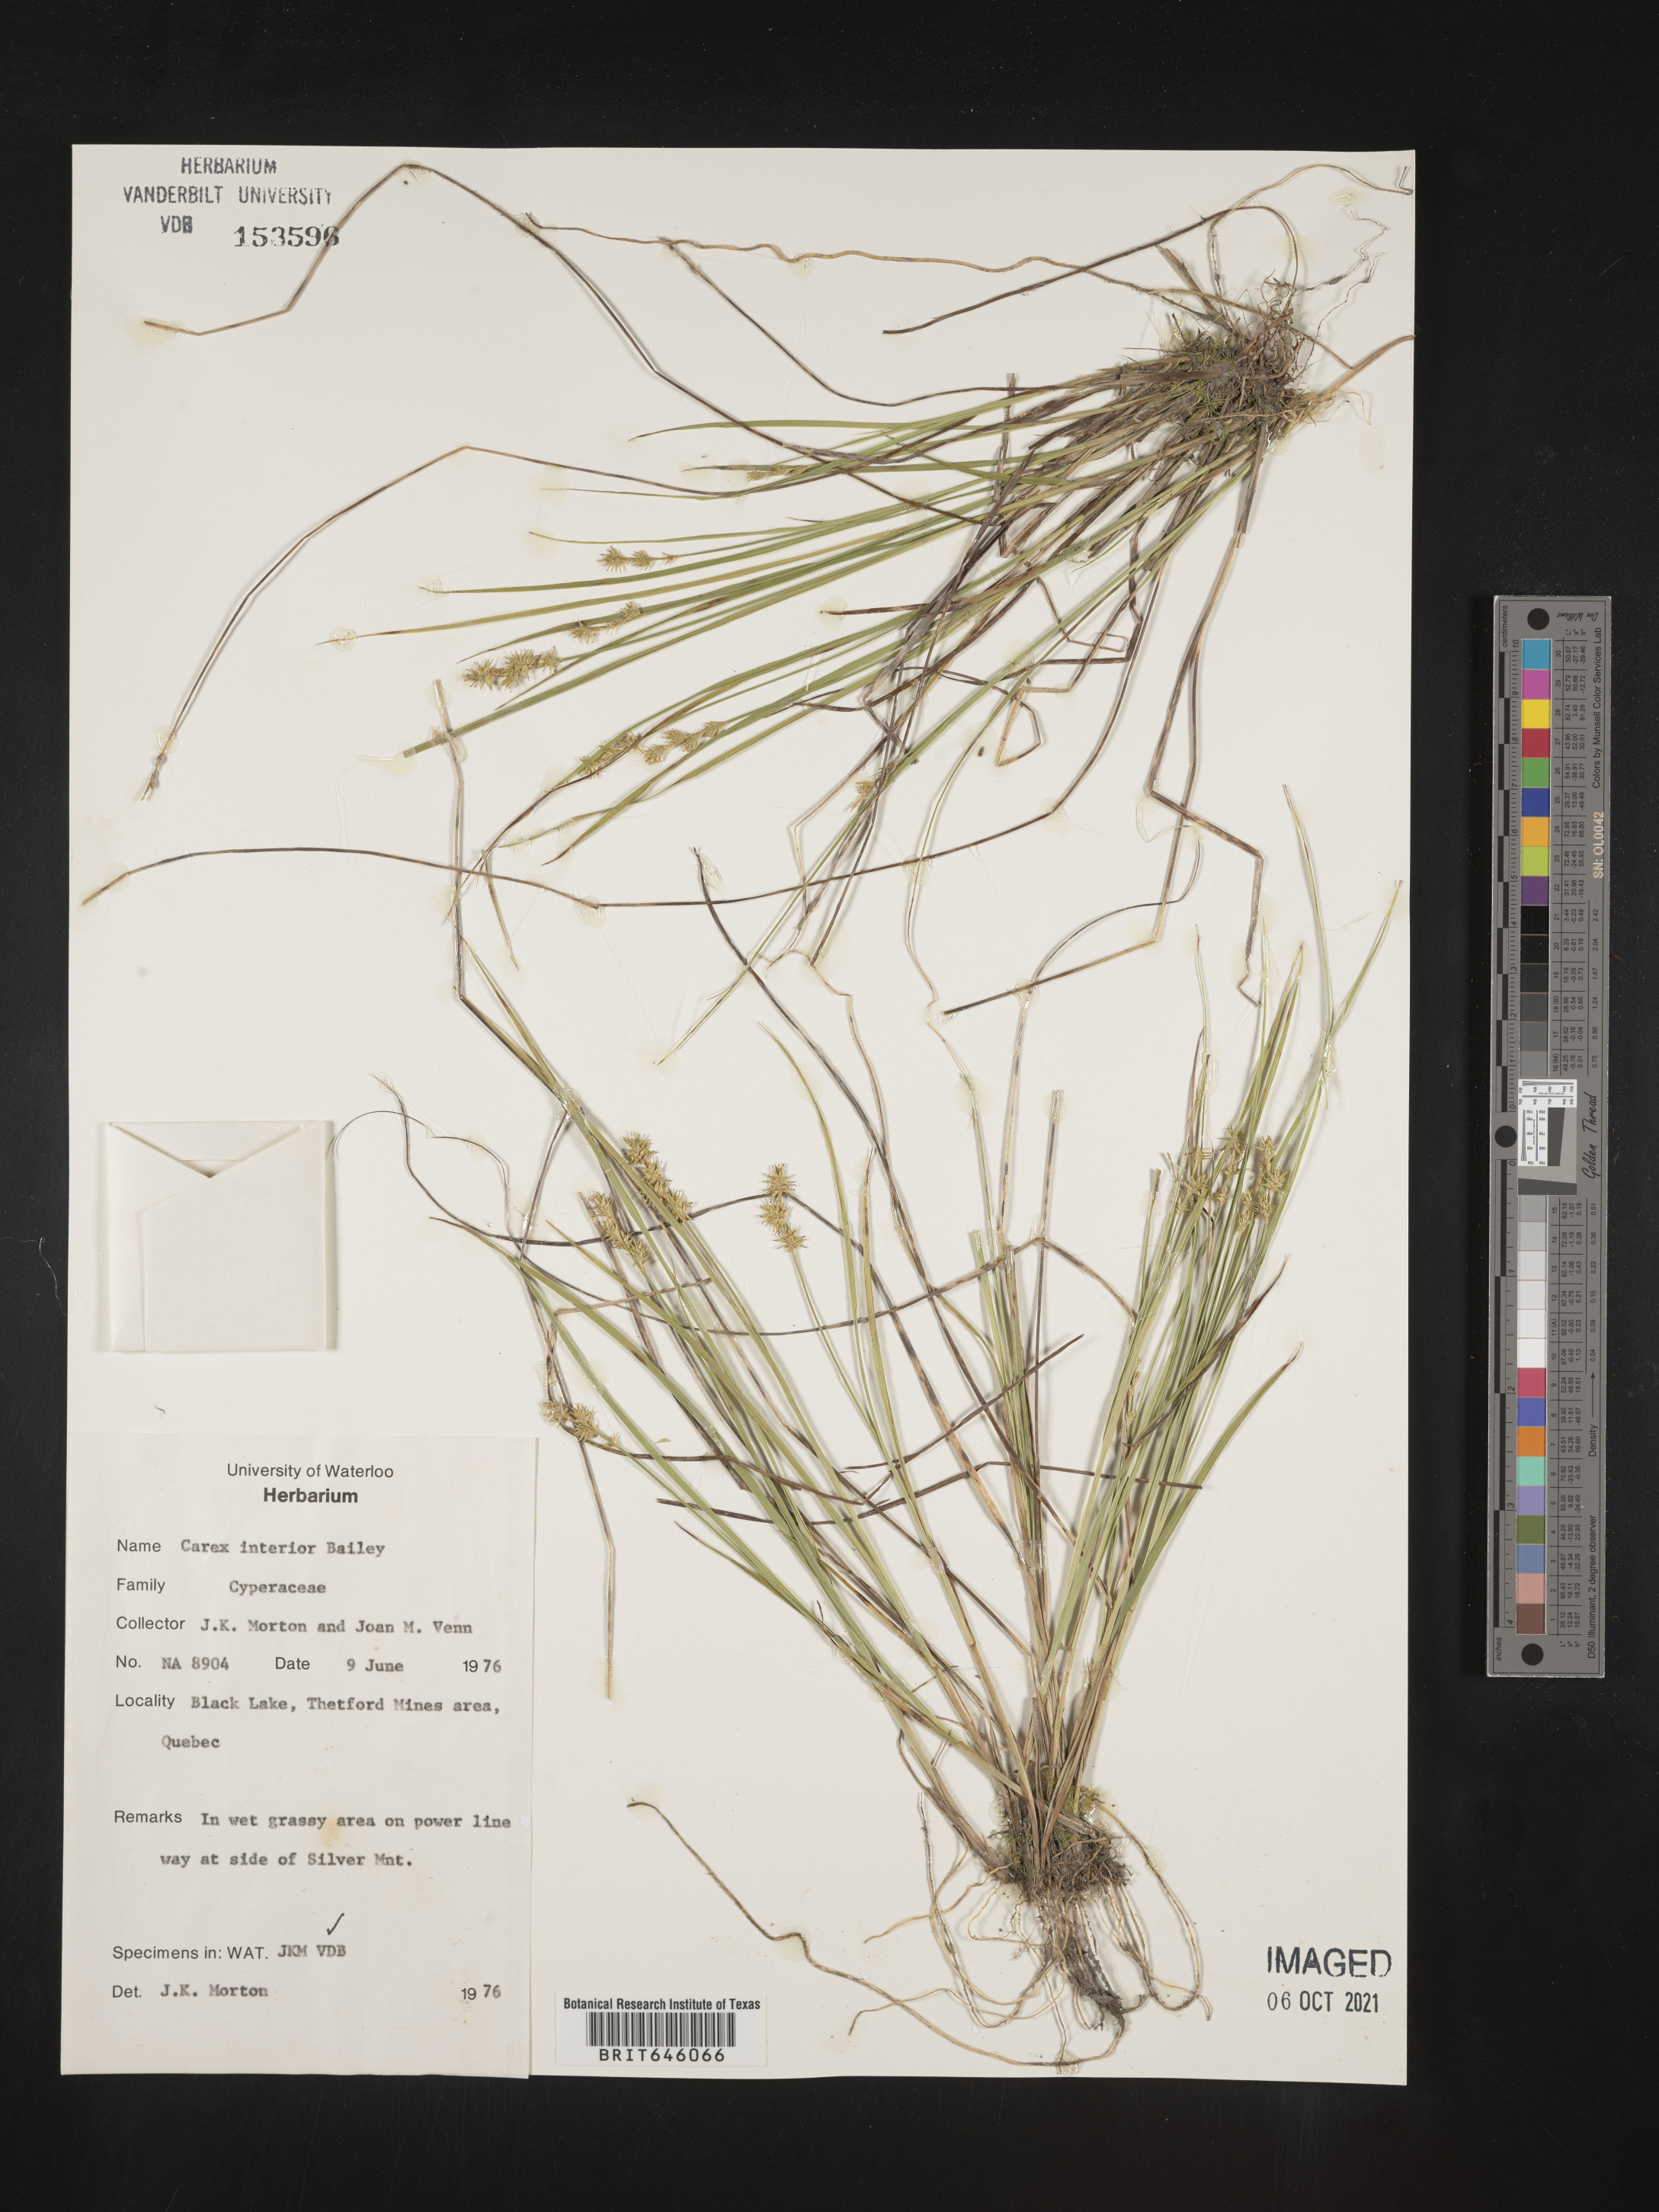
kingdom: Plantae
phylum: Tracheophyta
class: Liliopsida
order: Poales
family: Cyperaceae
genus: Carex
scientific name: Carex interior
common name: Inland sedge
